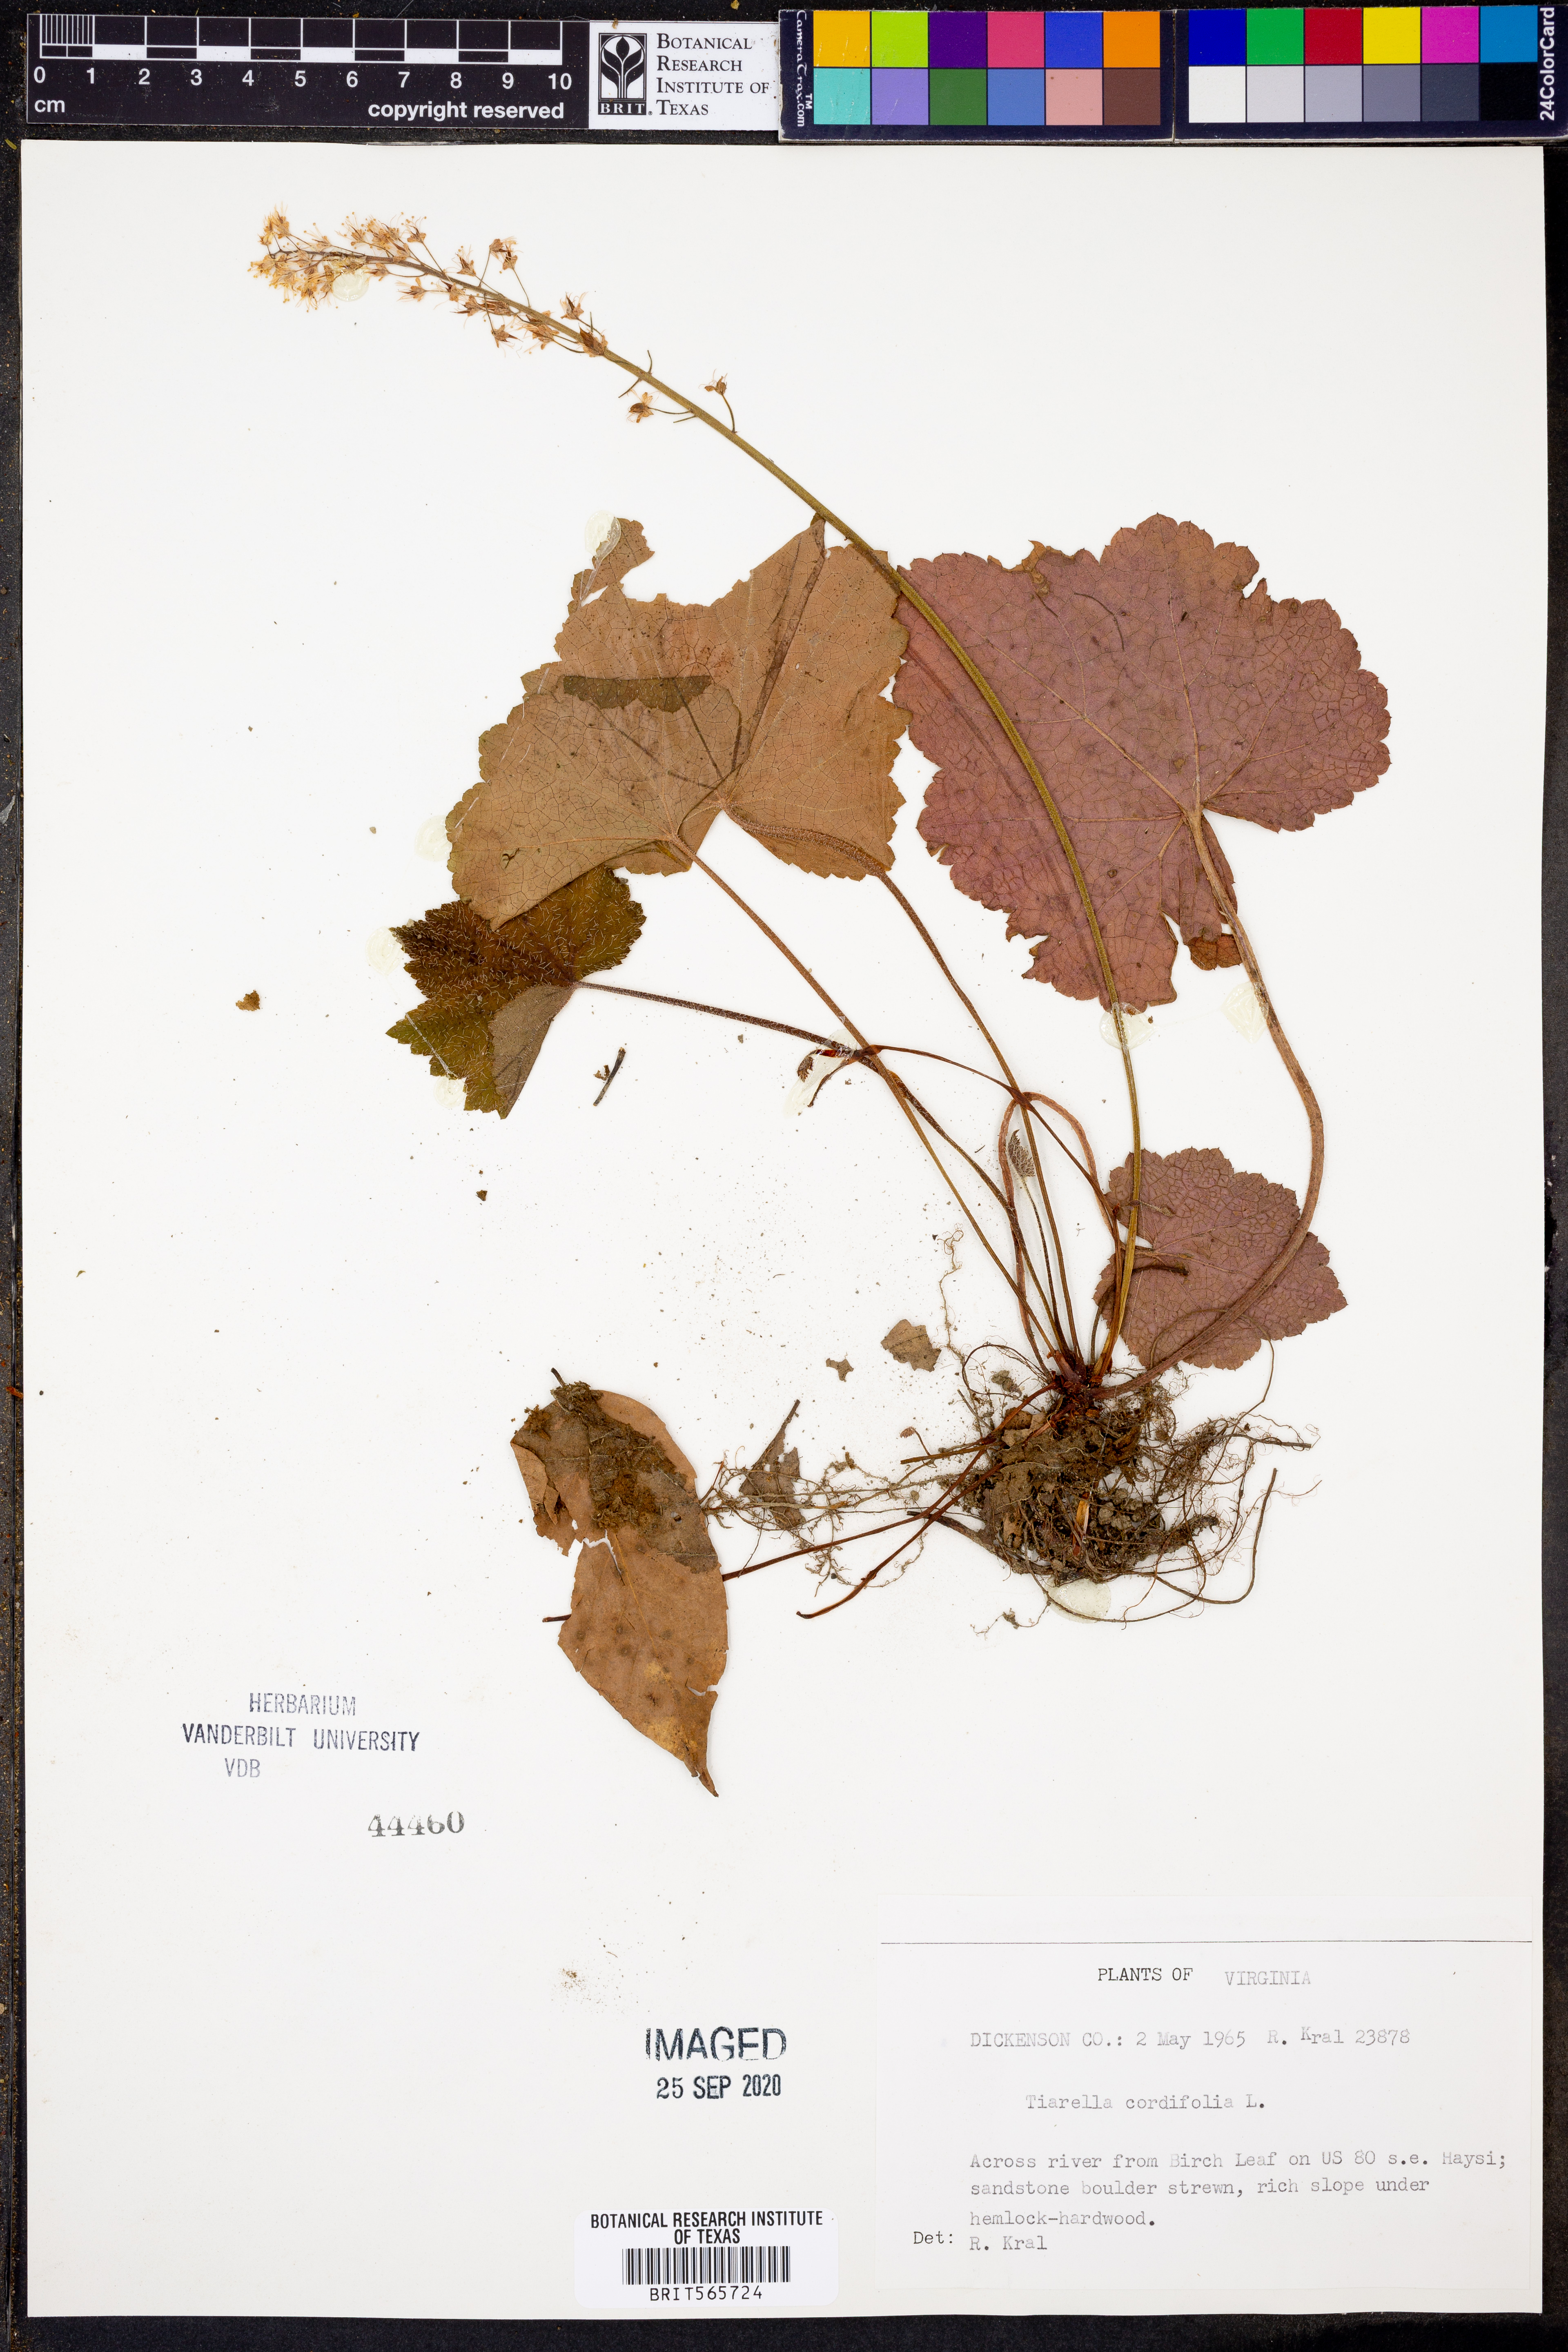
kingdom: Plantae
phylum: Tracheophyta
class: Magnoliopsida
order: Saxifragales
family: Saxifragaceae
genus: Tiarella
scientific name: Tiarella cordifolia
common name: Foamflower
